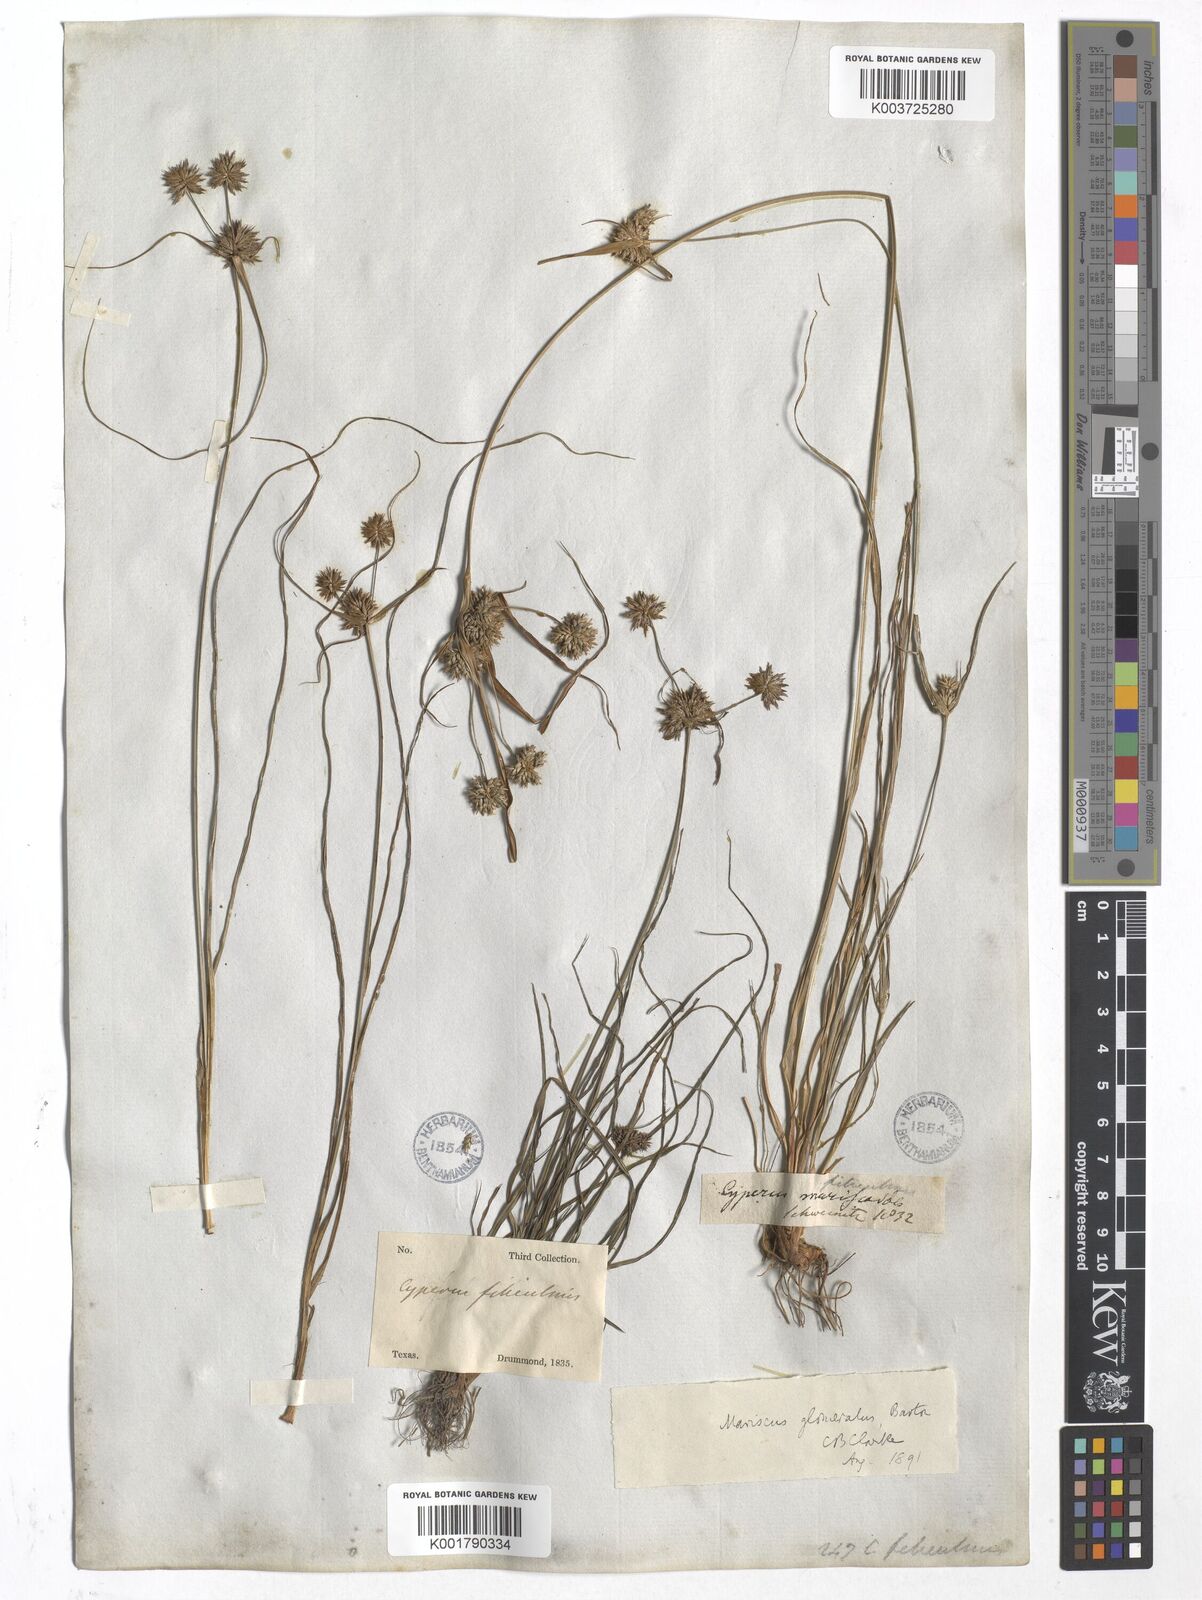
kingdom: Plantae
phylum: Tracheophyta
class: Liliopsida
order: Poales
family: Cyperaceae
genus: Cyperus
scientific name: Cyperus lupulinus
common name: Great plains flatsedge
